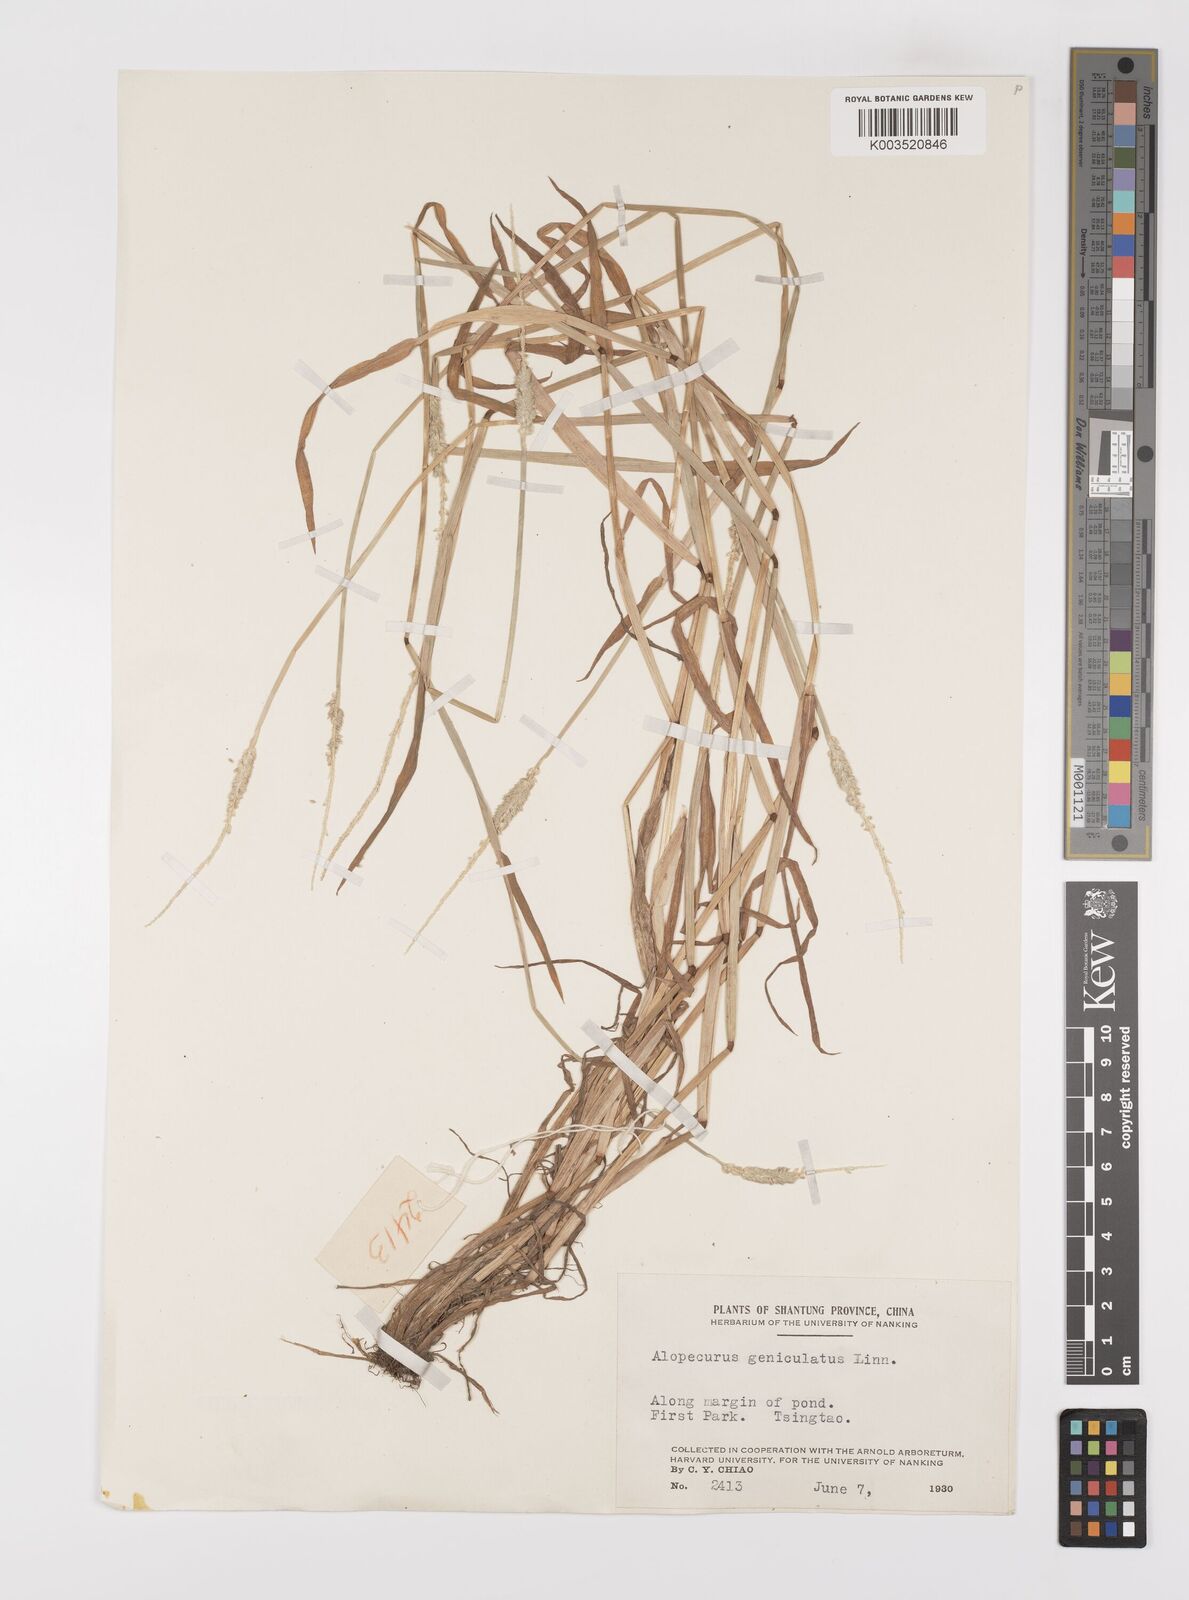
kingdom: Plantae
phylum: Tracheophyta
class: Liliopsida
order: Poales
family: Poaceae
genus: Alopecurus
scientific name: Alopecurus aequalis
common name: Orange foxtail
